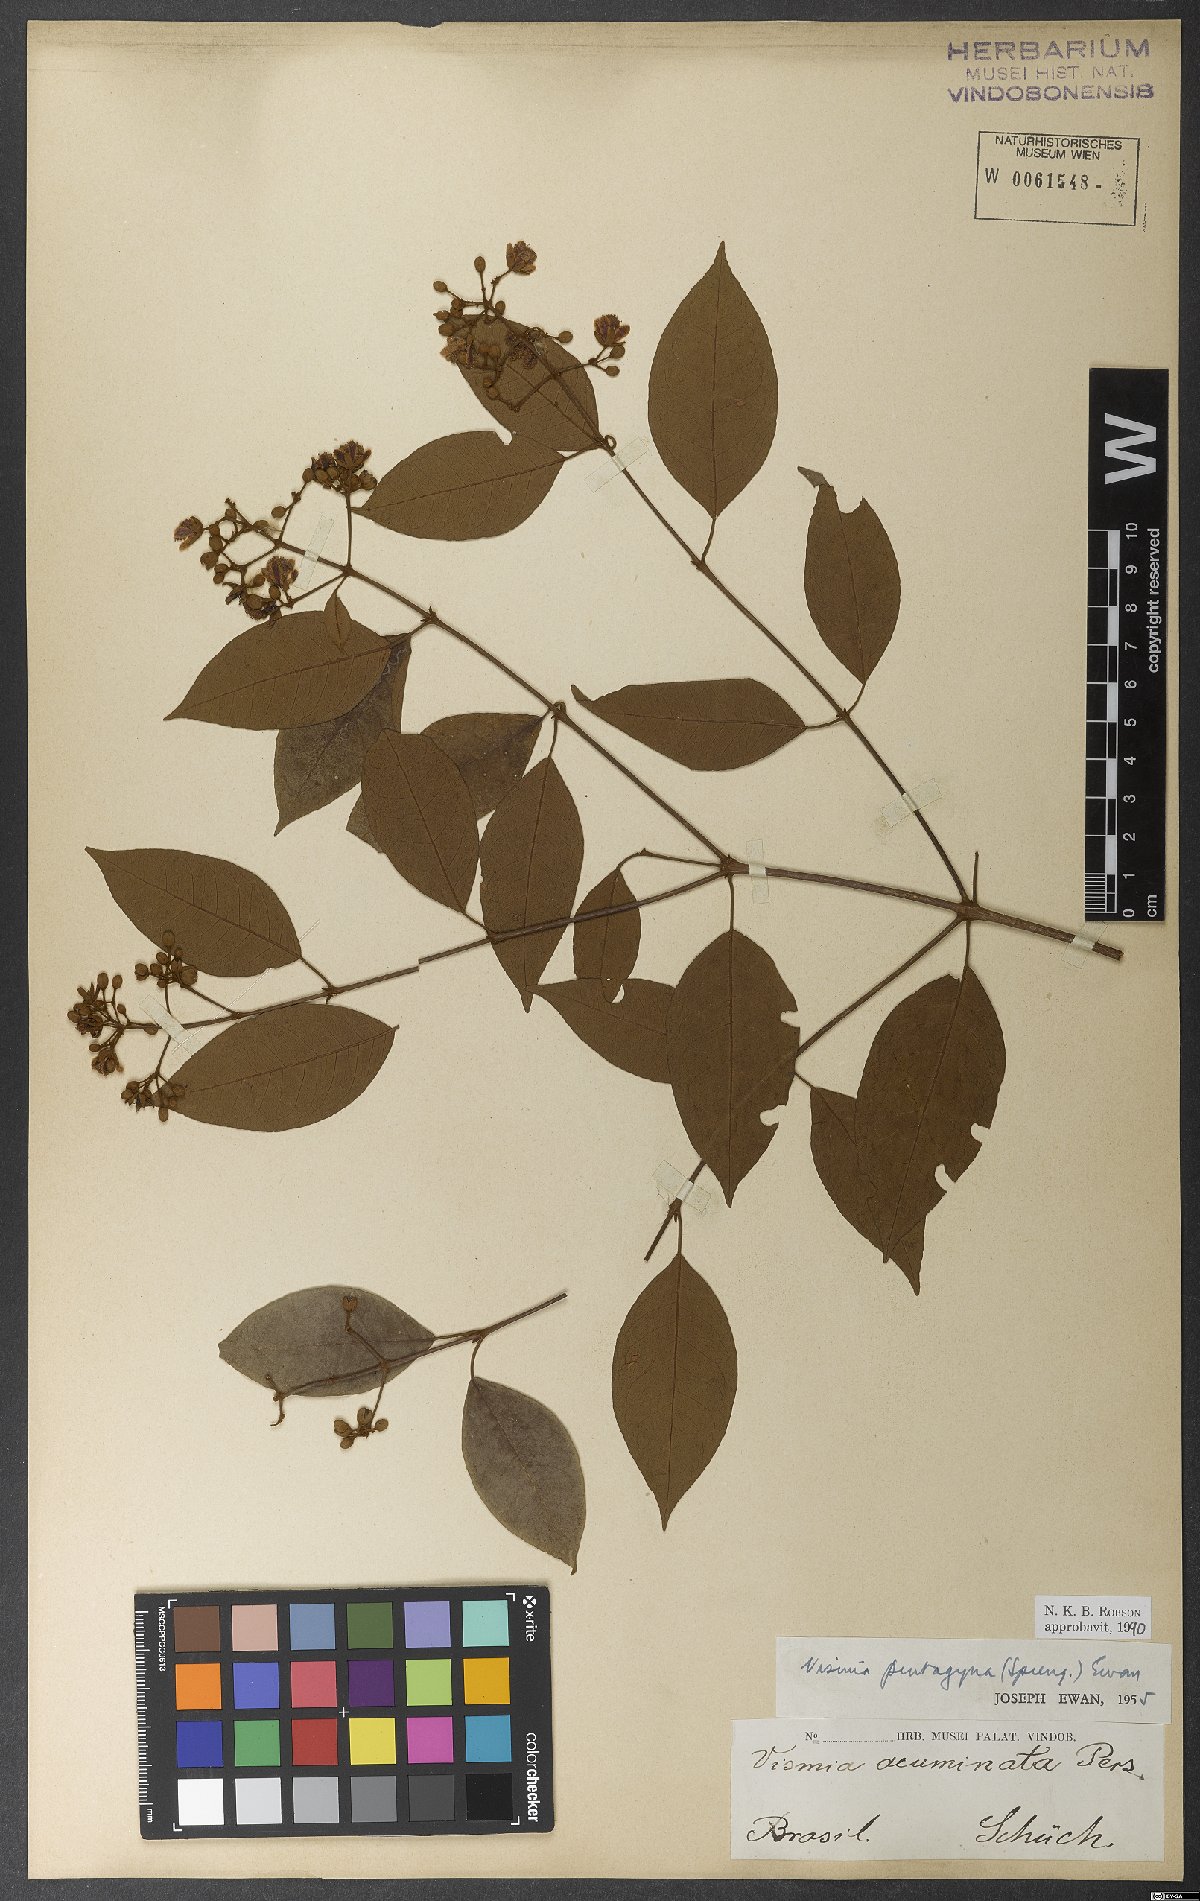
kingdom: Plantae
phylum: Tracheophyta
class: Magnoliopsida
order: Malpighiales
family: Hypericaceae
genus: Vismia
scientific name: Vismia pentagyna
